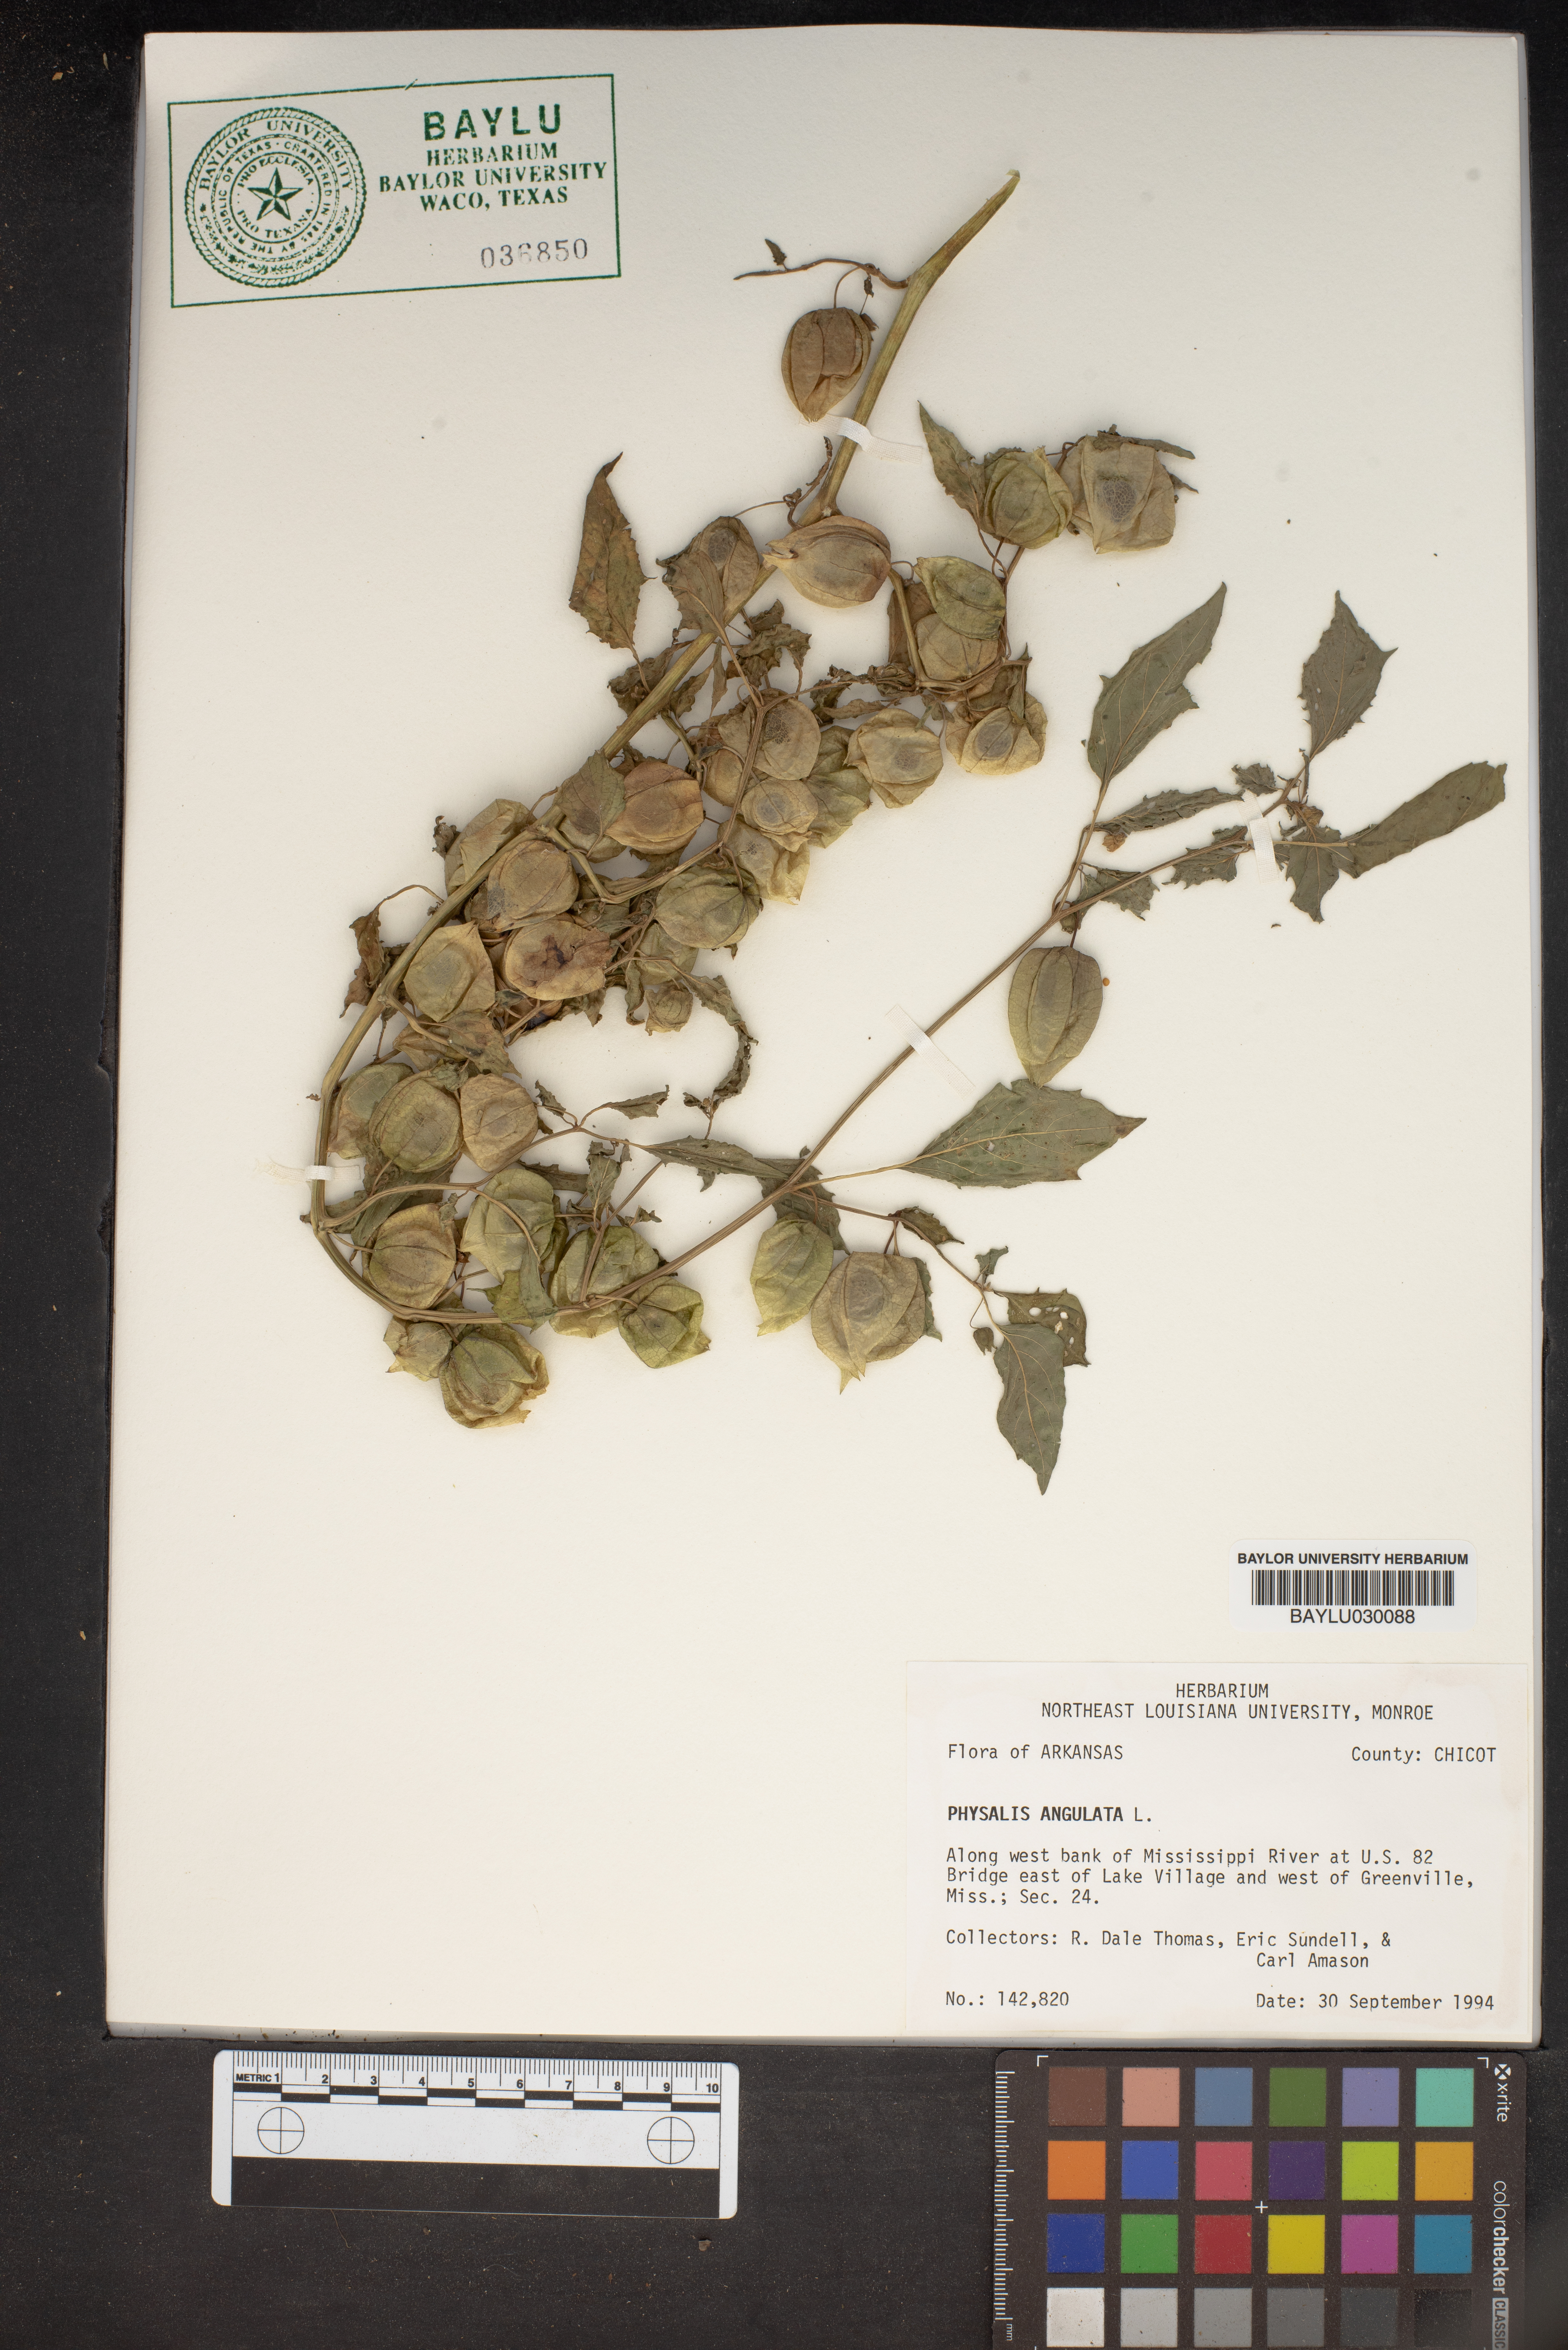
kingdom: Plantae
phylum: Tracheophyta
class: Magnoliopsida
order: Solanales
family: Solanaceae
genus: Physalis
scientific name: Physalis angulata
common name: Angular winter-cherry
